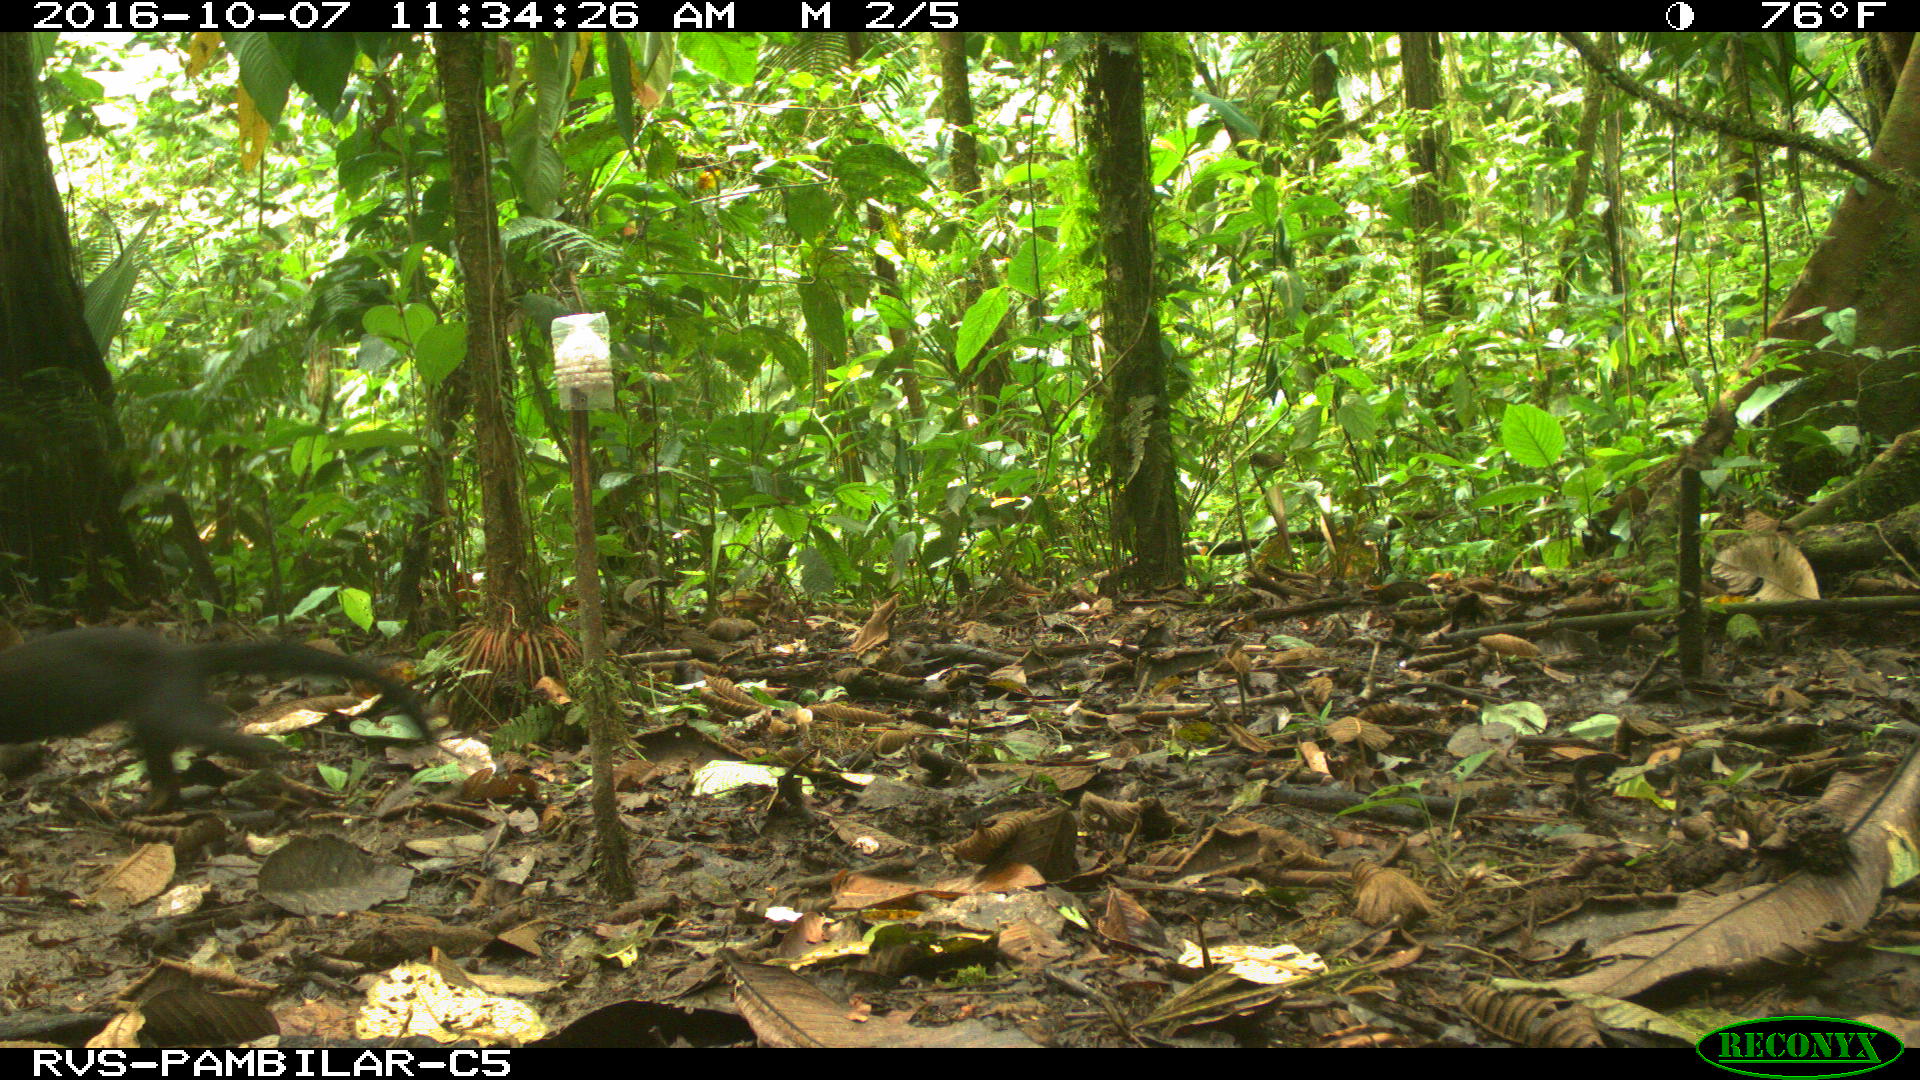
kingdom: Animalia
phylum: Chordata
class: Mammalia
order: Carnivora
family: Mustelidae
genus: Eira
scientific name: Eira barbara
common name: Tayra
